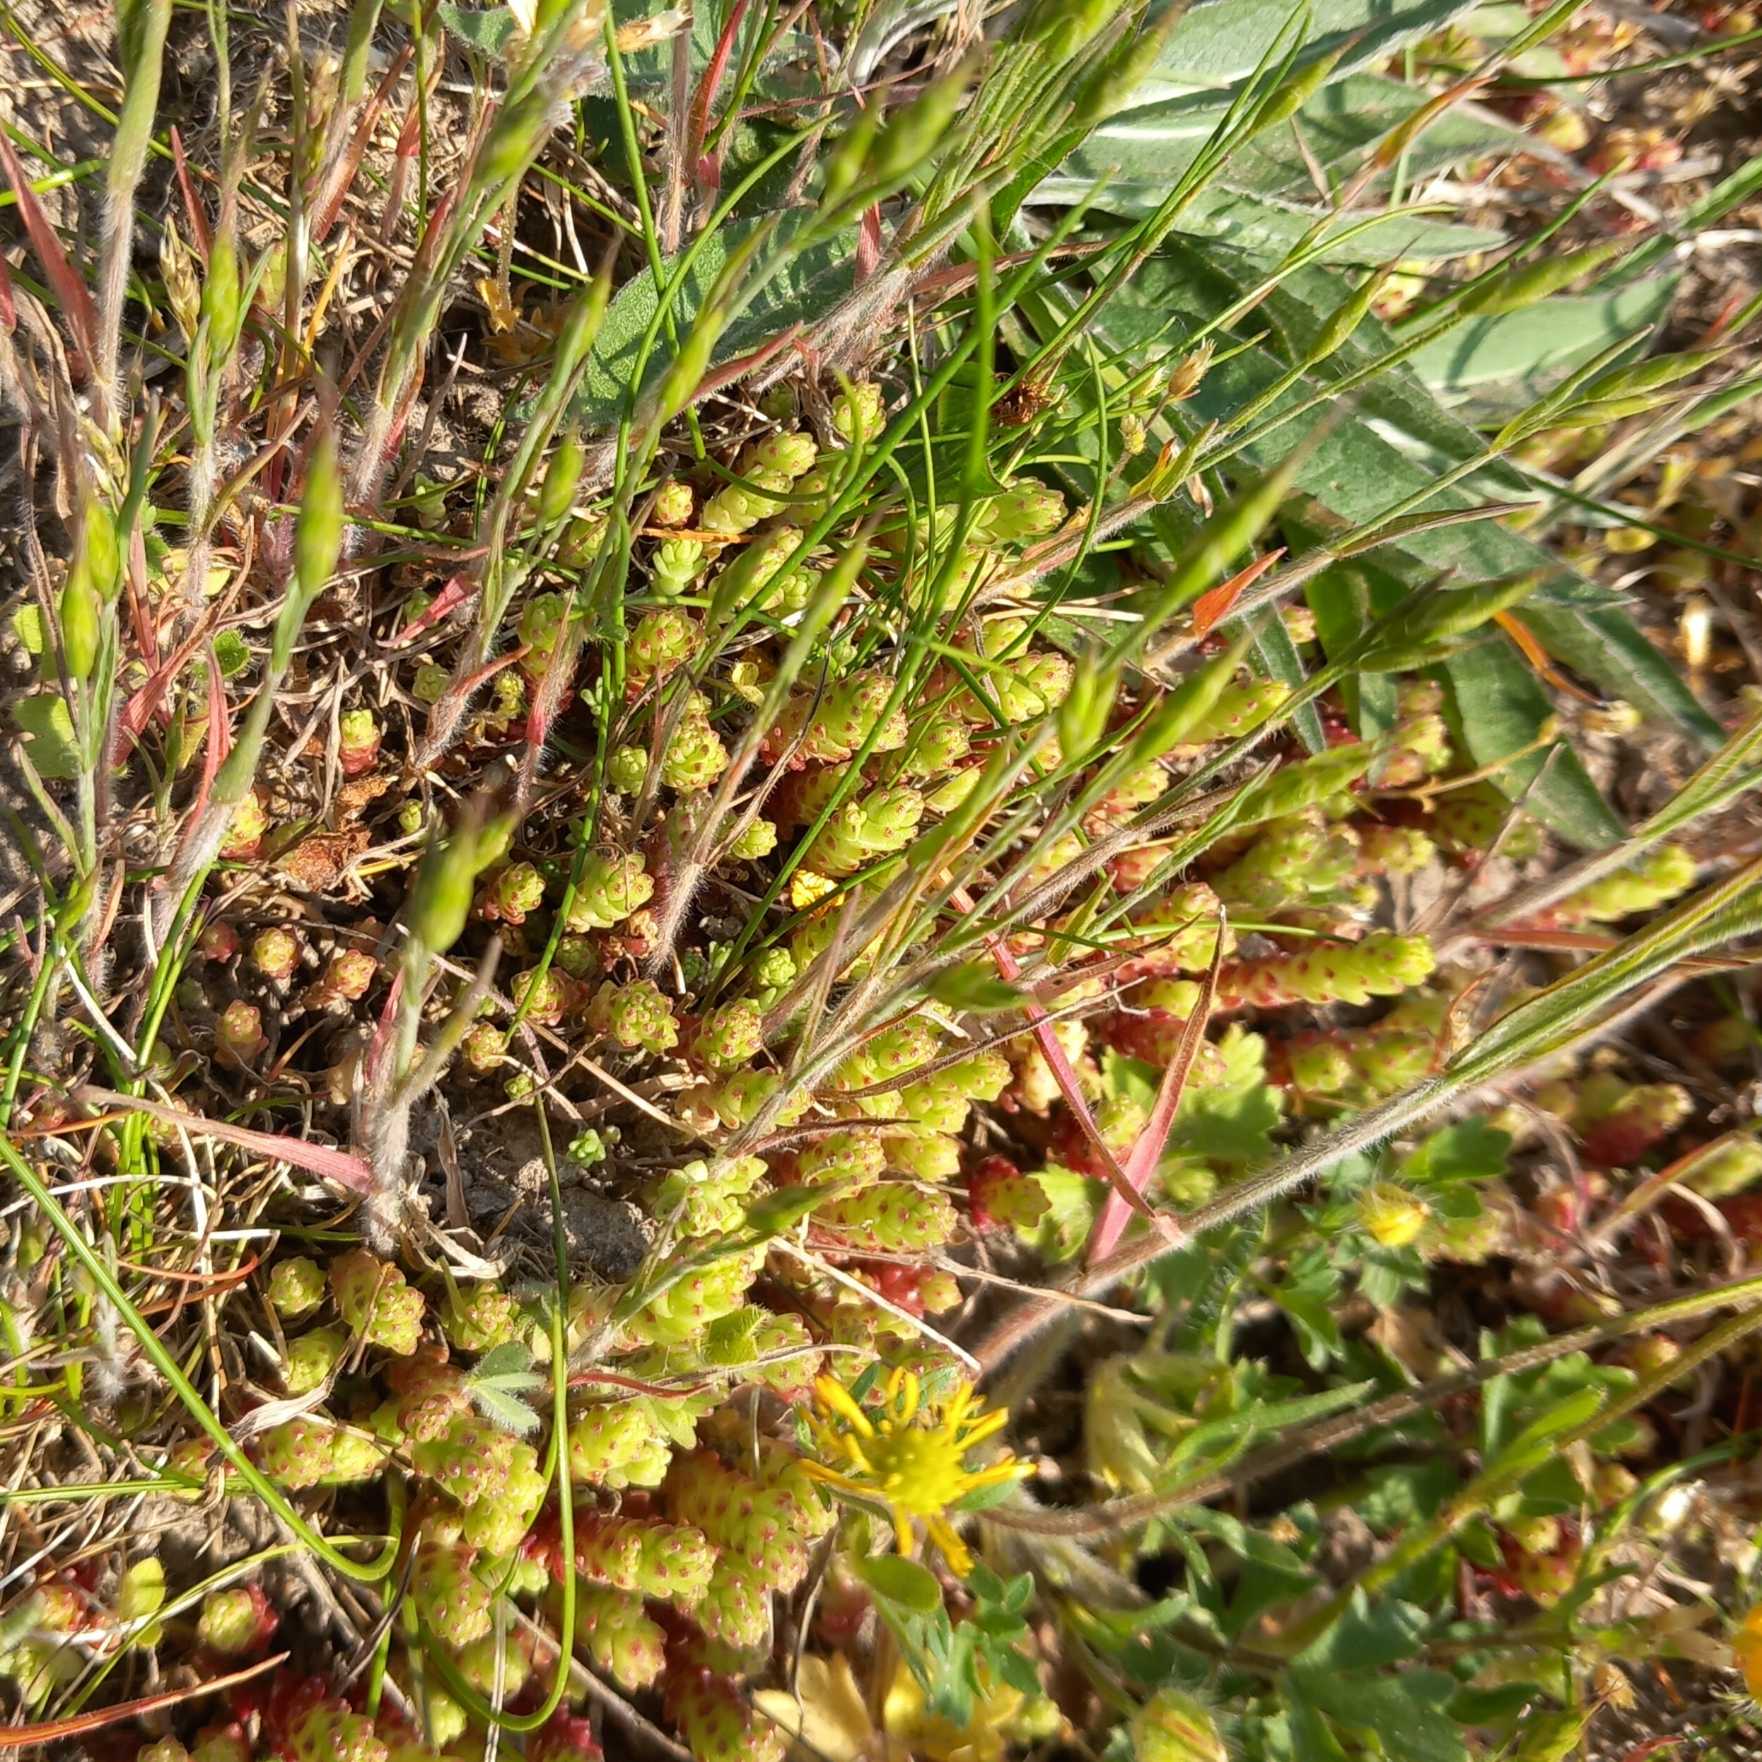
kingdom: Plantae
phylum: Tracheophyta
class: Magnoliopsida
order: Saxifragales
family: Crassulaceae
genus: Sedum
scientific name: Sedum acre
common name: Bidende stenurt
